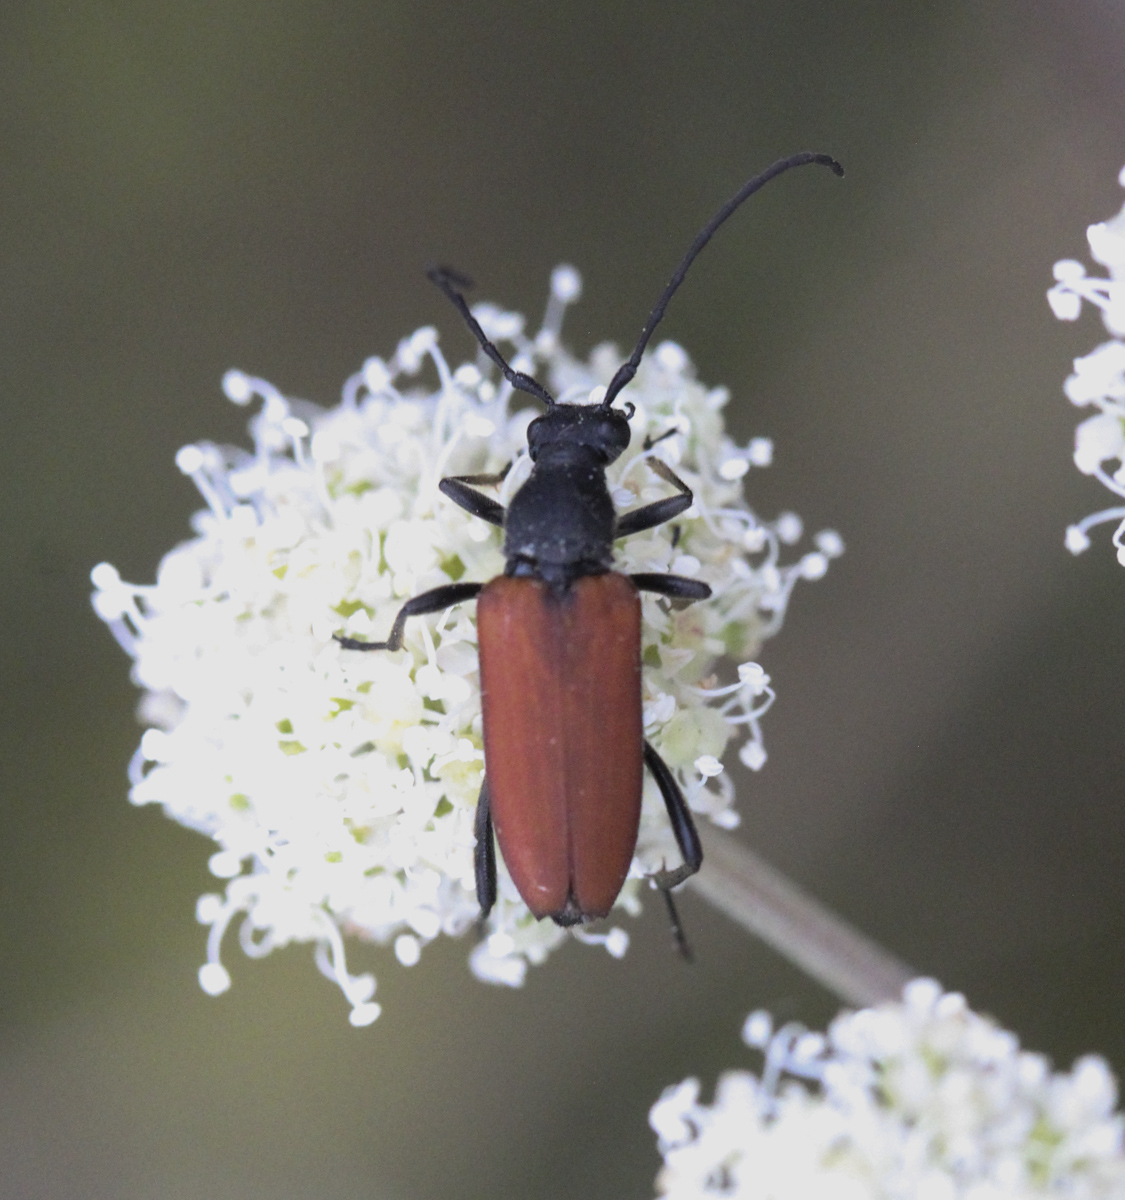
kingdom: Animalia
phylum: Arthropoda
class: Insecta
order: Coleoptera
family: Cerambycidae
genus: Anastrangalia
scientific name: Anastrangalia reyi
